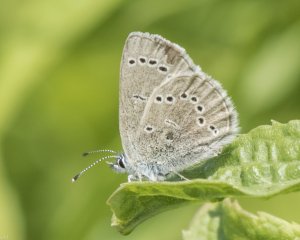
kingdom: Animalia
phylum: Arthropoda
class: Insecta
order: Lepidoptera
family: Lycaenidae
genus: Glaucopsyche
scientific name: Glaucopsyche lygdamus
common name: Silvery Blue
